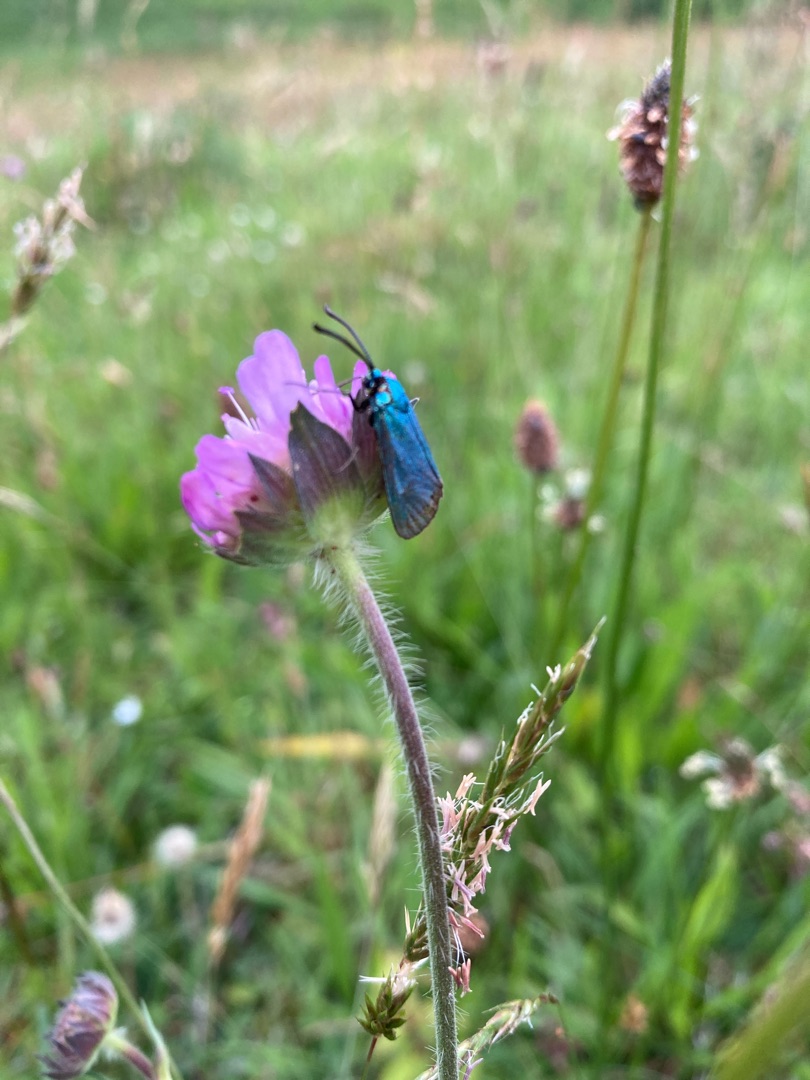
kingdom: Animalia
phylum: Arthropoda
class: Insecta
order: Lepidoptera
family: Zygaenidae
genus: Adscita
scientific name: Adscita statices
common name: Metalvinge
